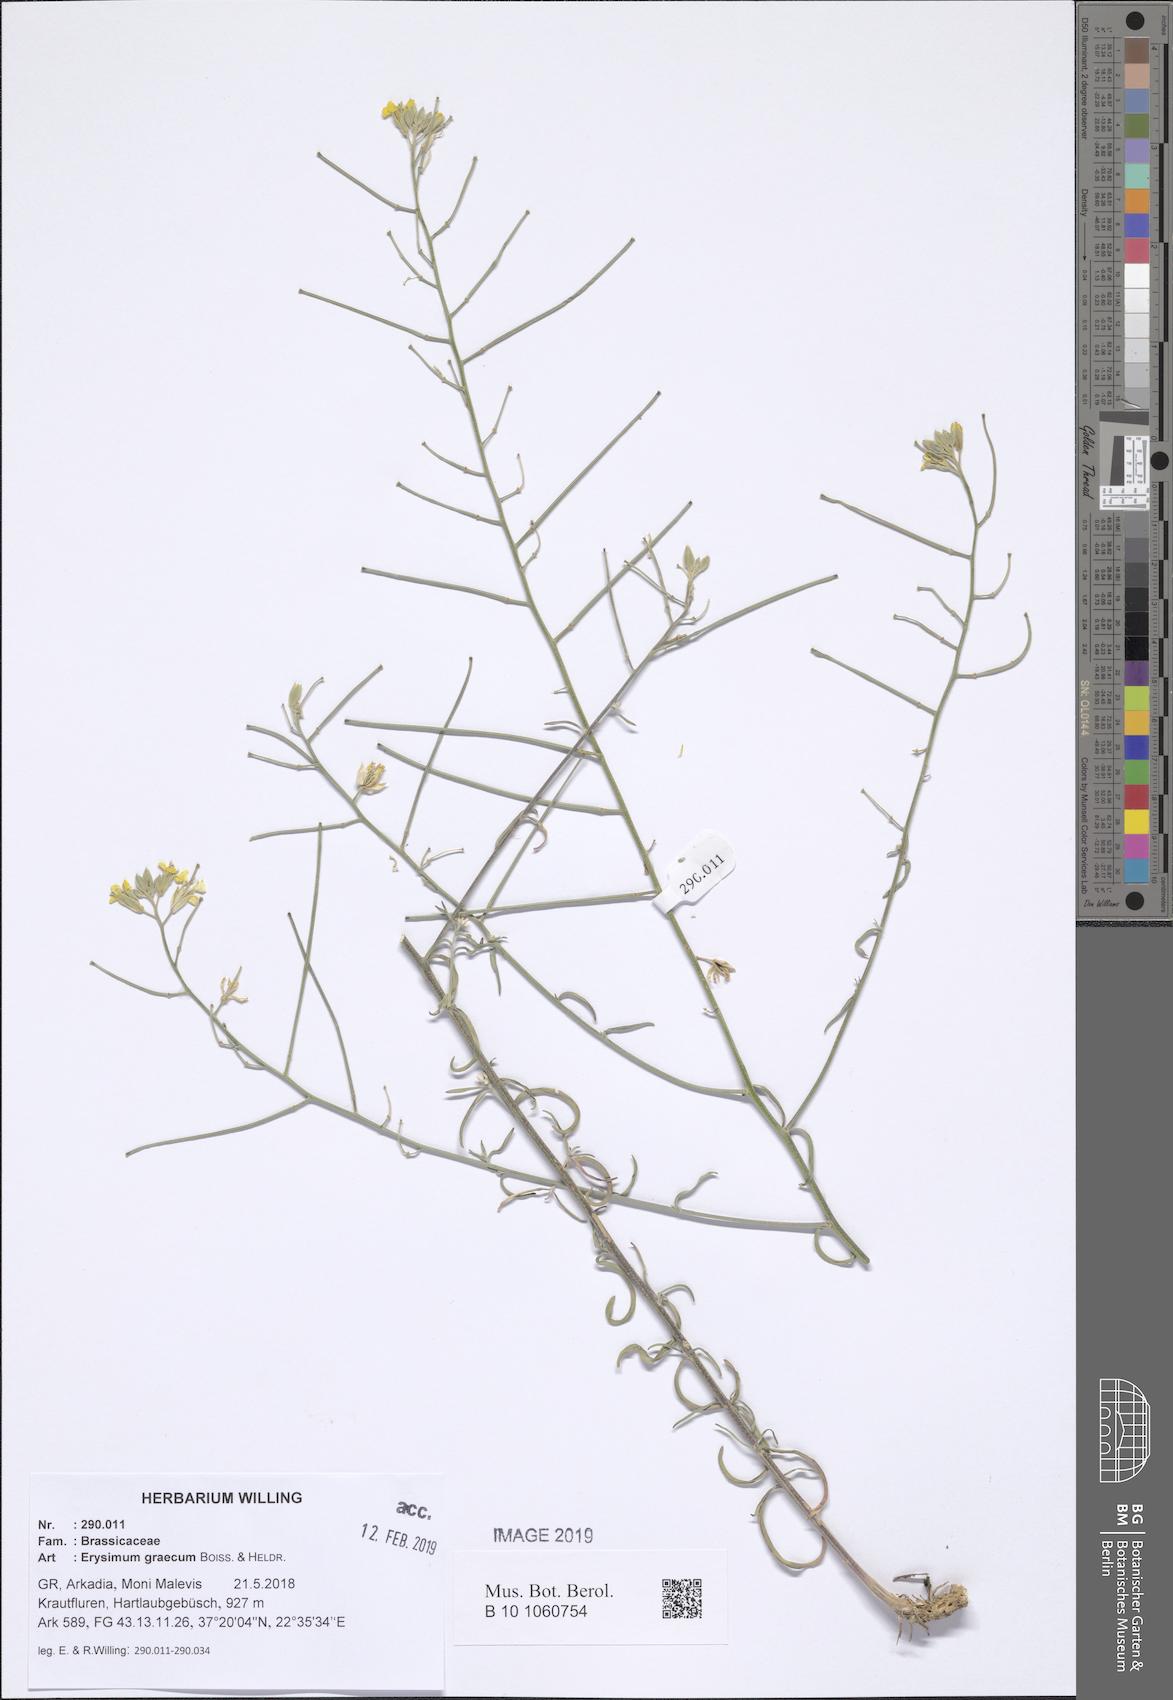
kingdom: Plantae
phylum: Tracheophyta
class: Magnoliopsida
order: Brassicales
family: Brassicaceae
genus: Erysimum
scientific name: Erysimum graecum
